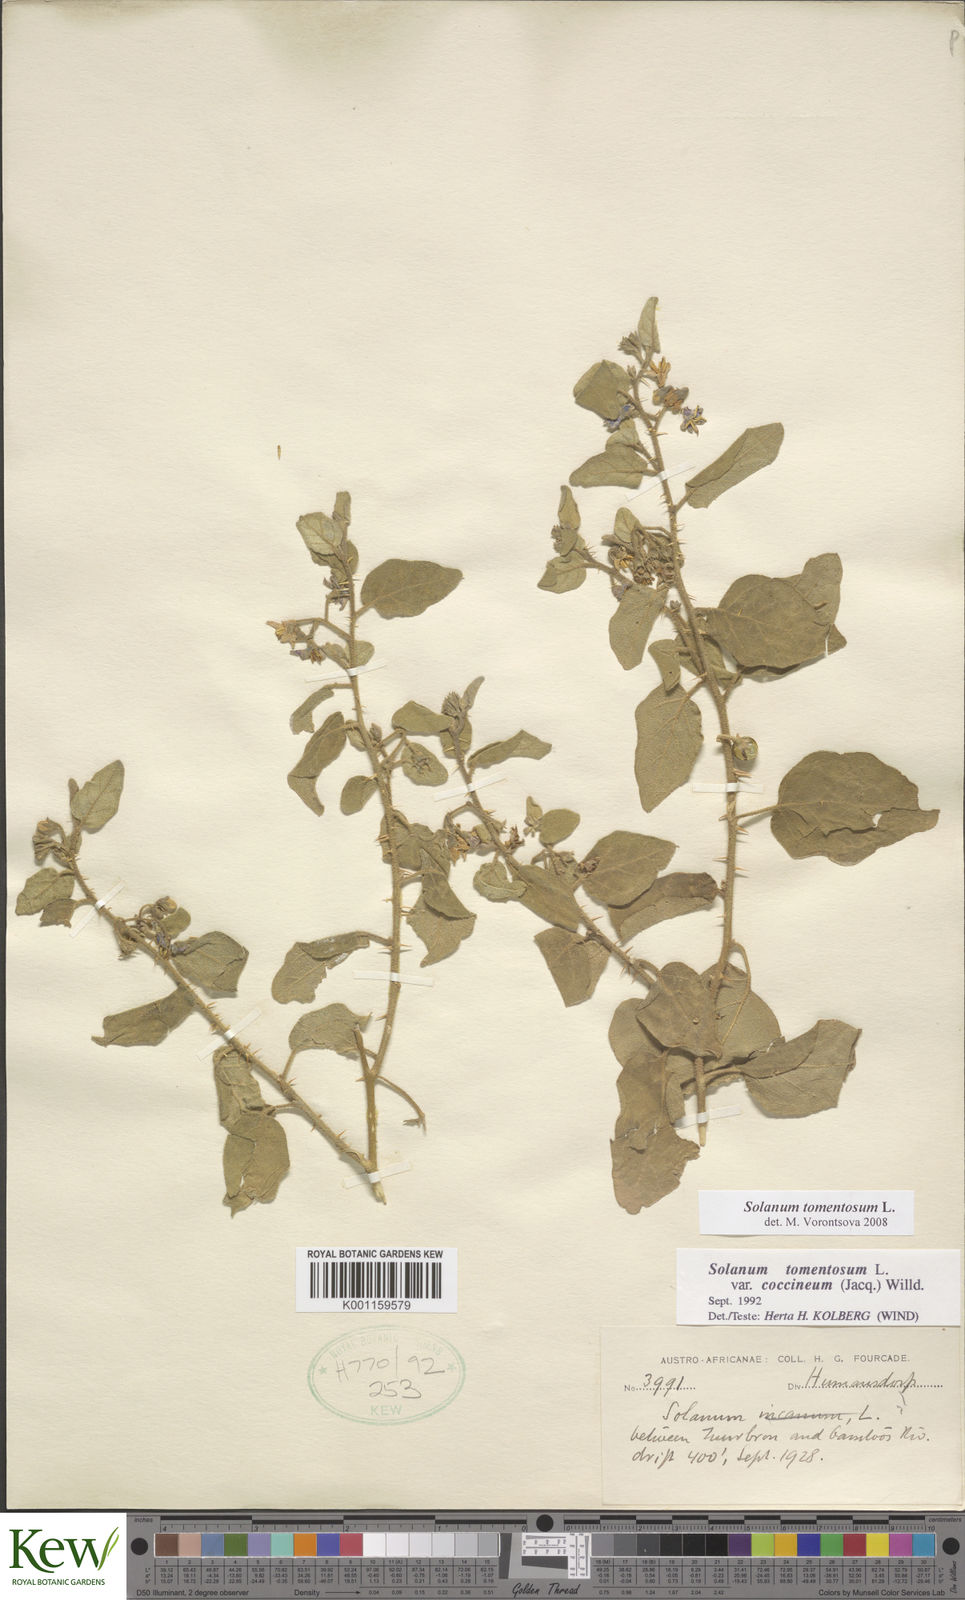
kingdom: Plantae
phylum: Tracheophyta
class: Magnoliopsida
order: Solanales
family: Solanaceae
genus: Solanum
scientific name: Solanum tomentosum
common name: Wild aubergine
